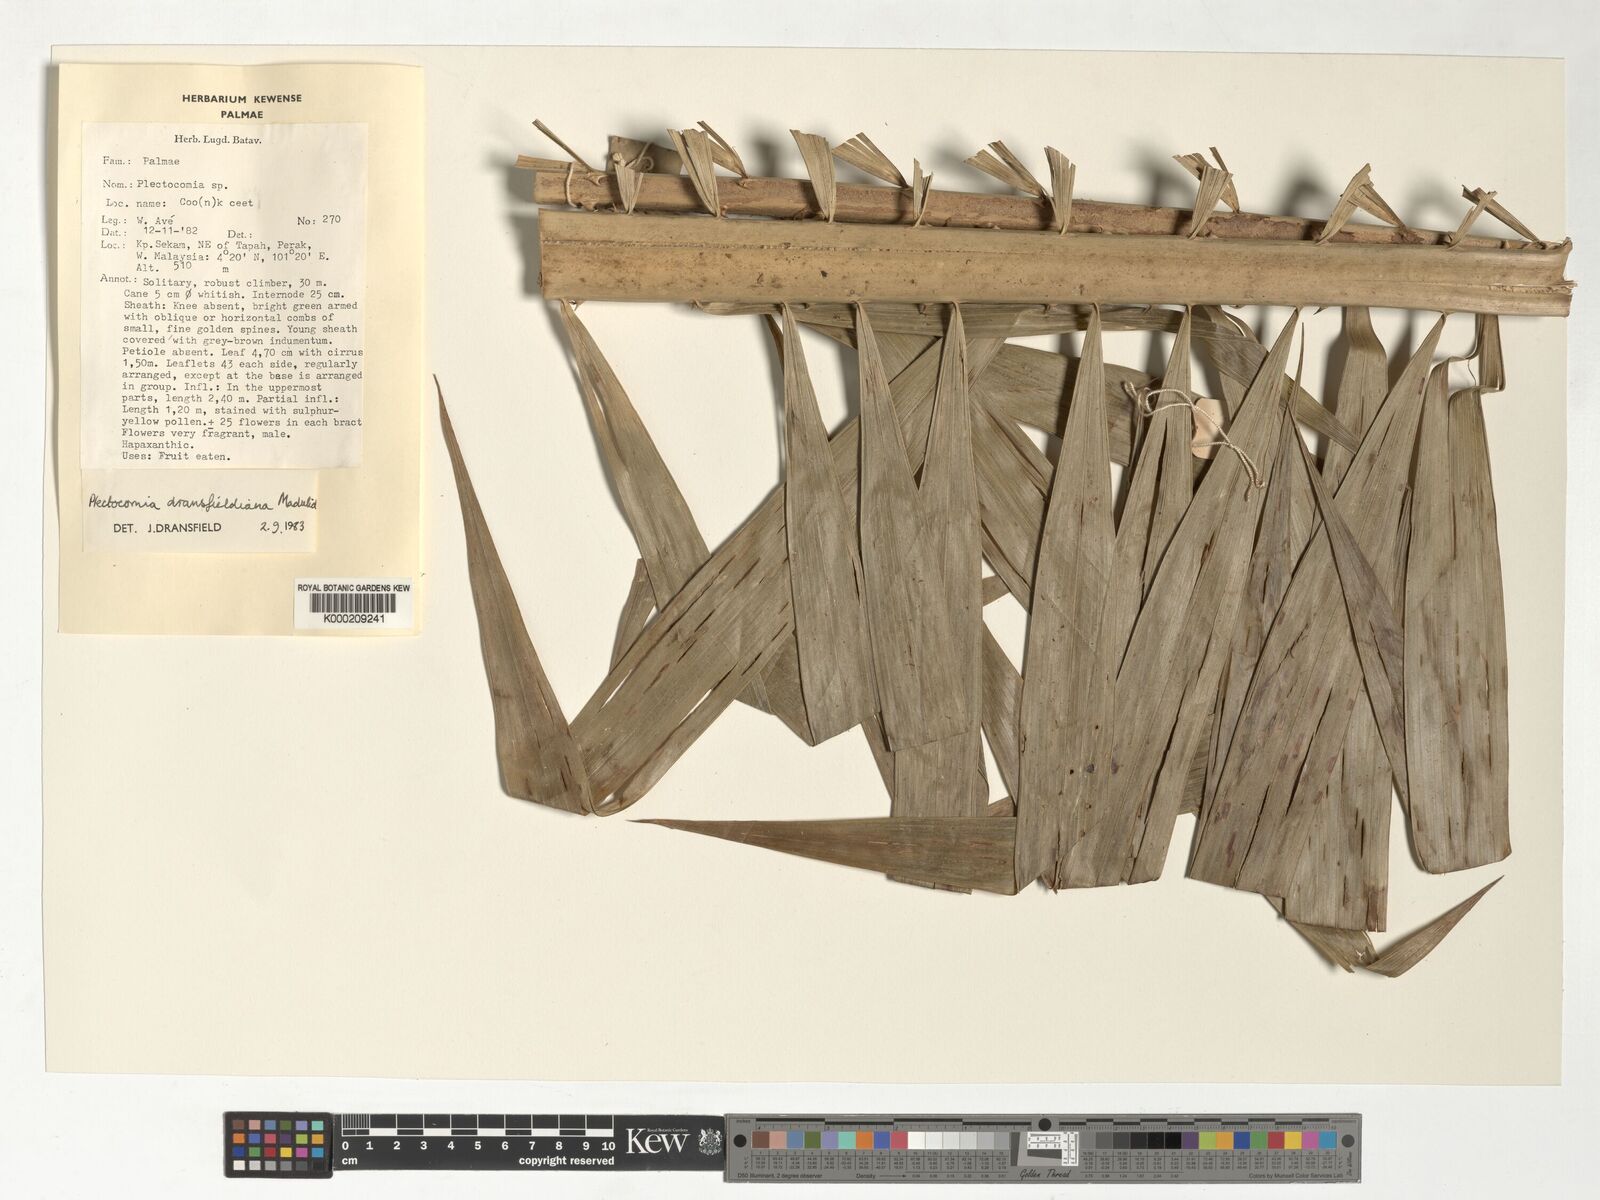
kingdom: Plantae
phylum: Tracheophyta
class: Liliopsida
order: Arecales
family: Arecaceae
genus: Plectocomia
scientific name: Plectocomia dransfieldiana
